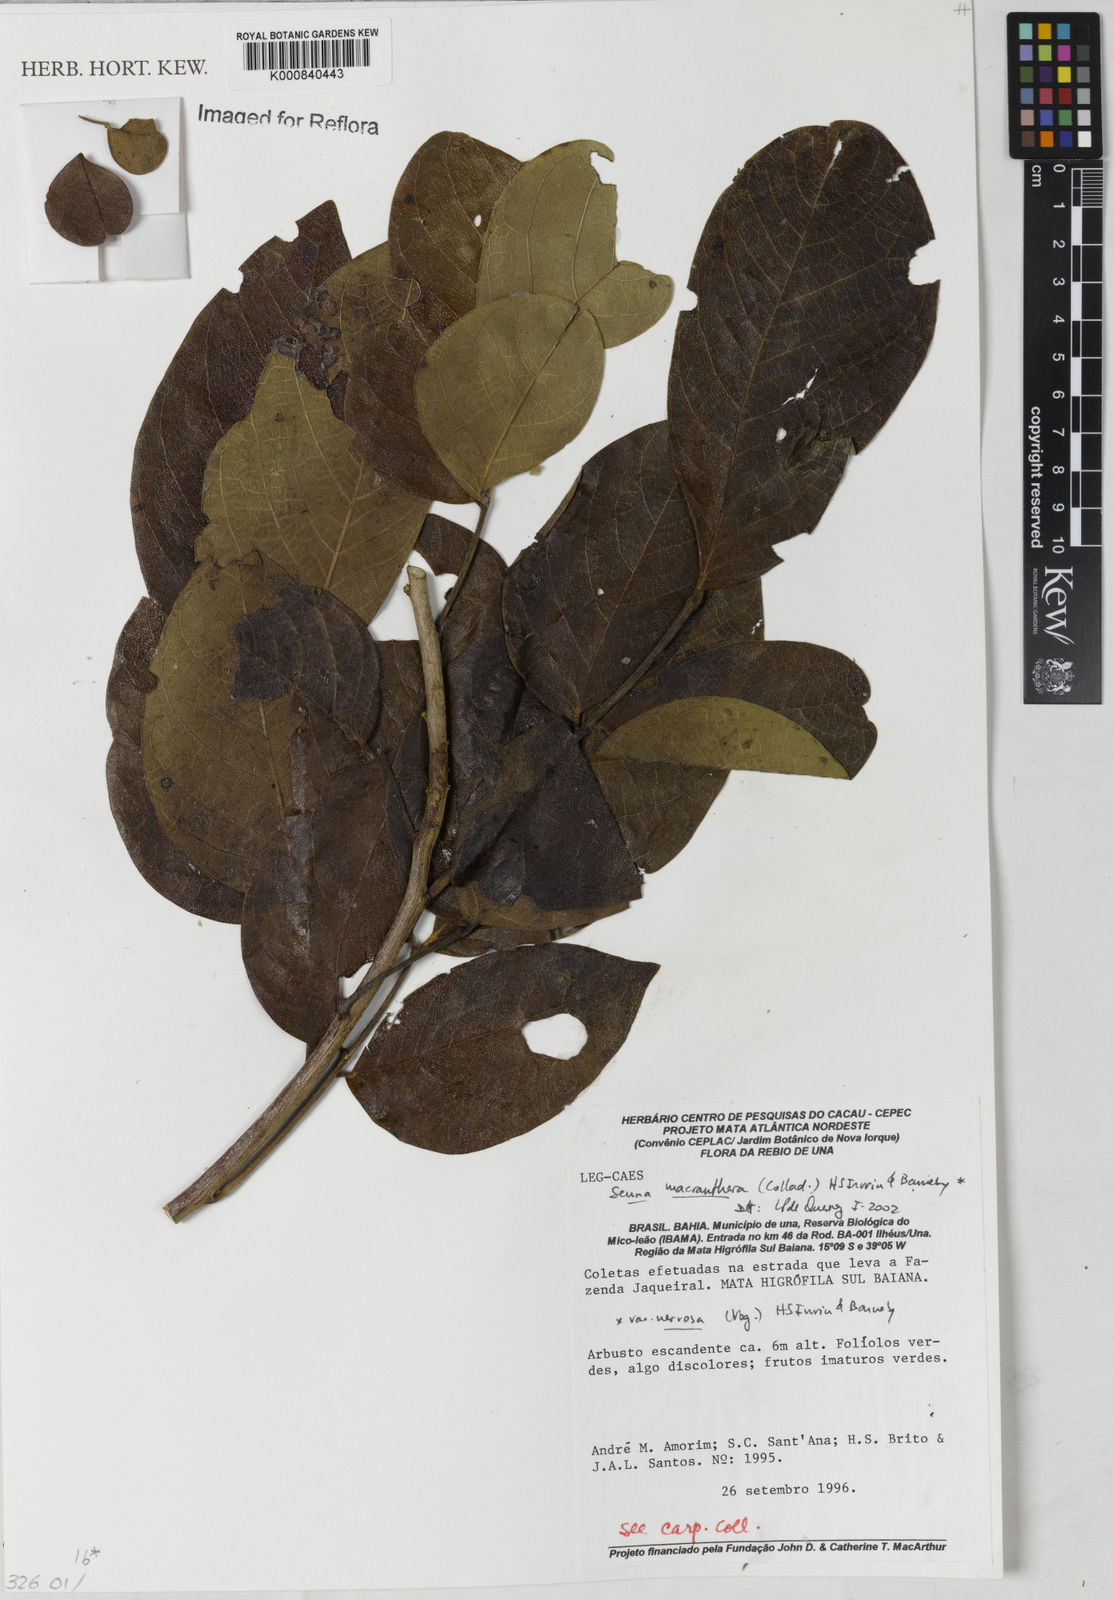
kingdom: Plantae
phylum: Tracheophyta
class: Magnoliopsida
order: Fabales
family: Fabaceae
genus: Senna
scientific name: Senna macranthera
